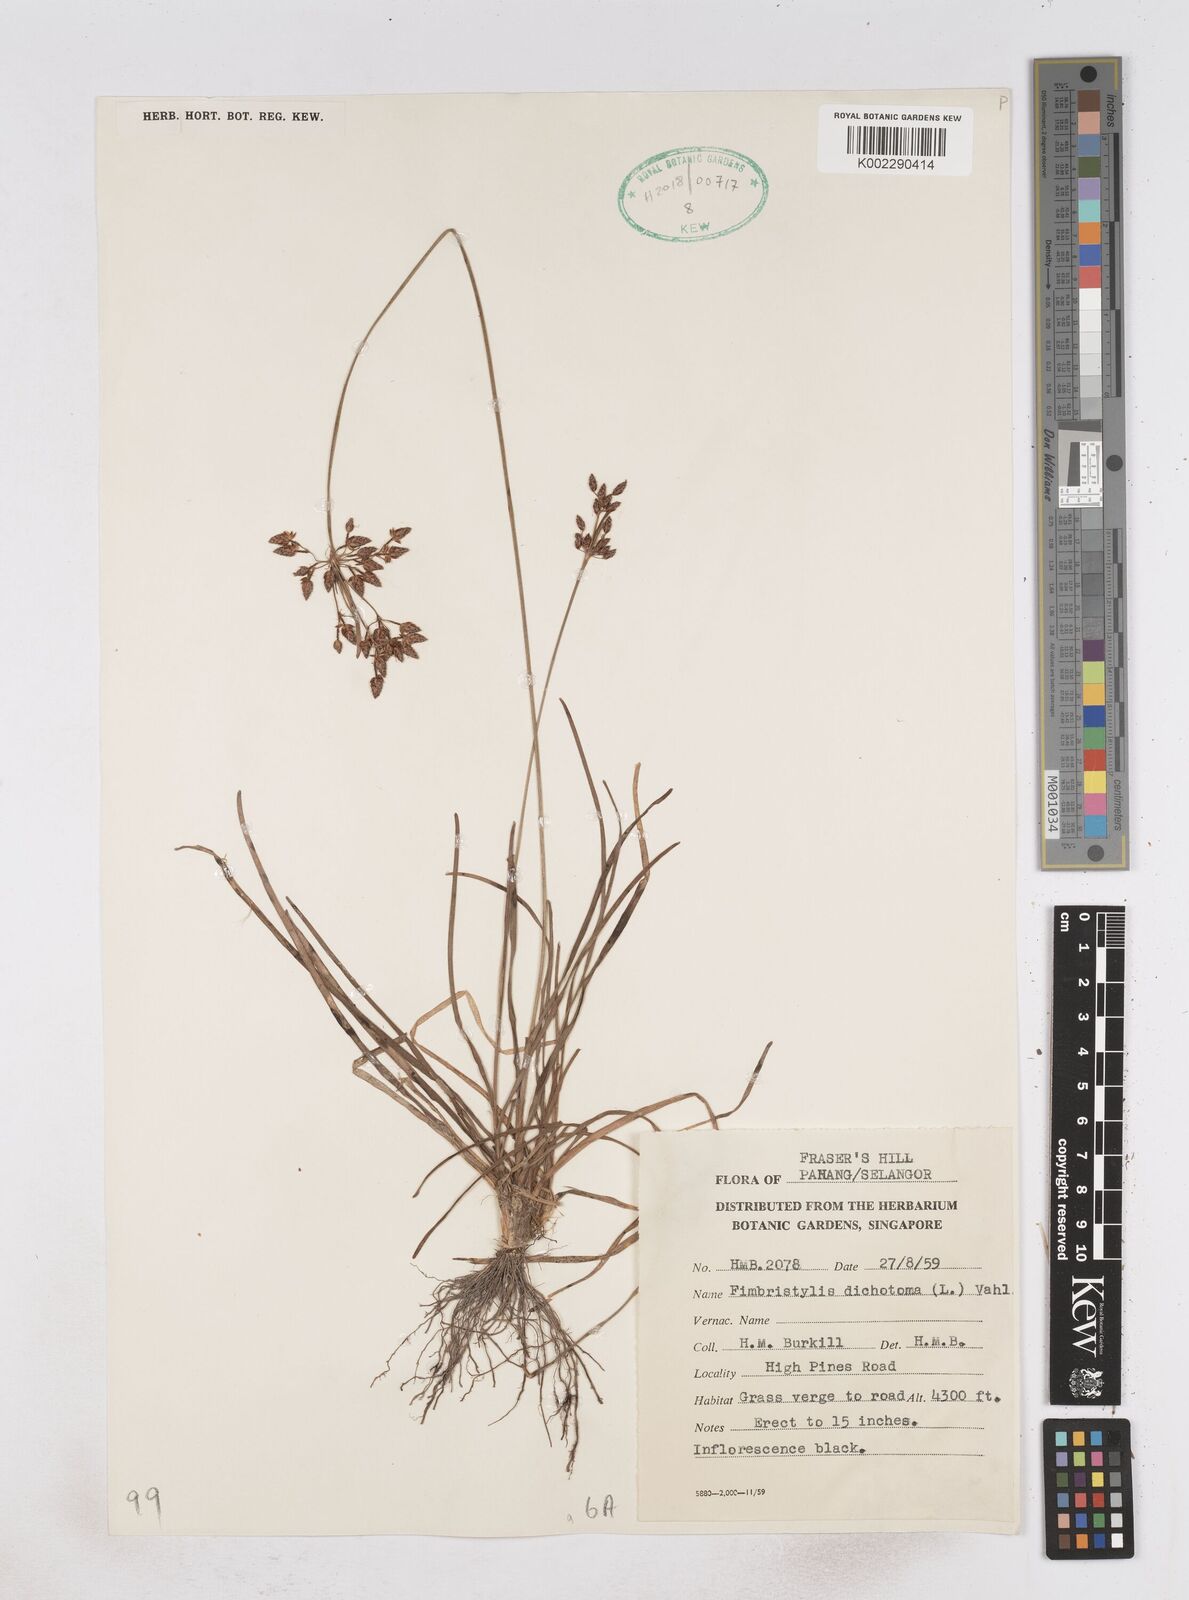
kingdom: Plantae
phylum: Tracheophyta
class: Liliopsida
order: Poales
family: Cyperaceae
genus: Fimbristylis
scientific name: Fimbristylis dichotoma
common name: Forked fimbry
